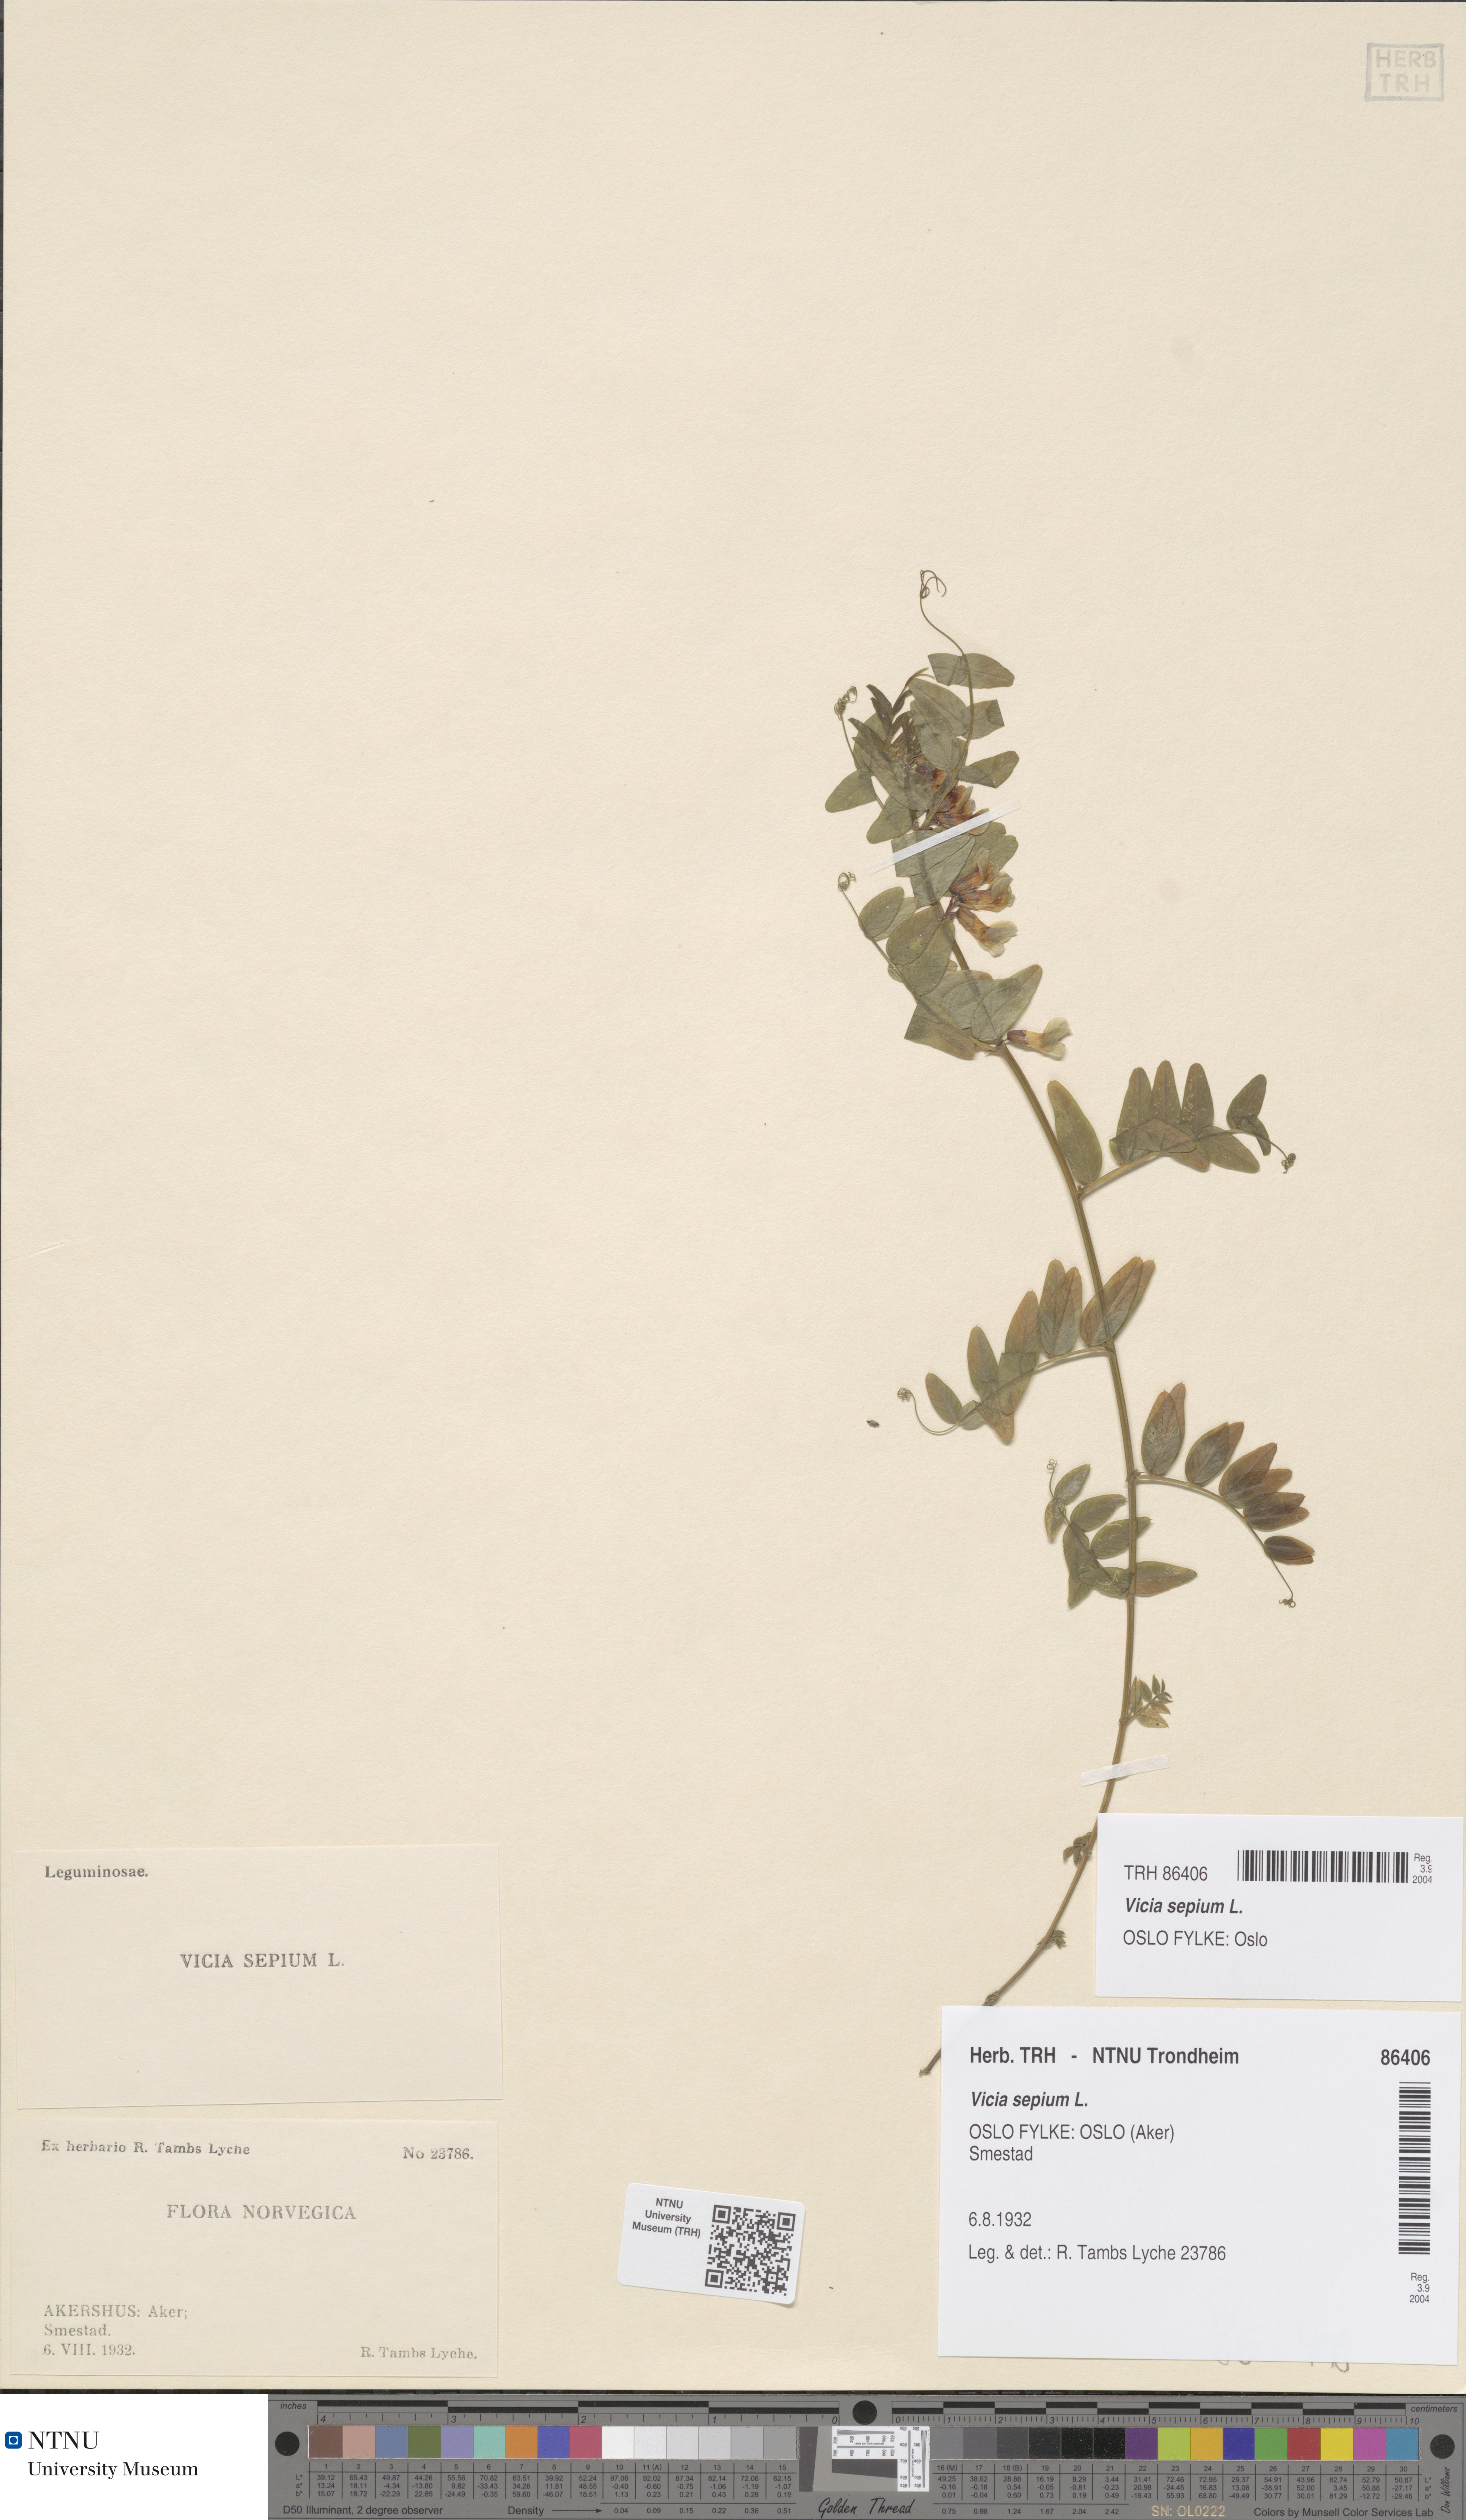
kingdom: Plantae
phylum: Tracheophyta
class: Magnoliopsida
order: Fabales
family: Fabaceae
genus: Vicia
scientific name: Vicia sepium
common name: Bush vetch
